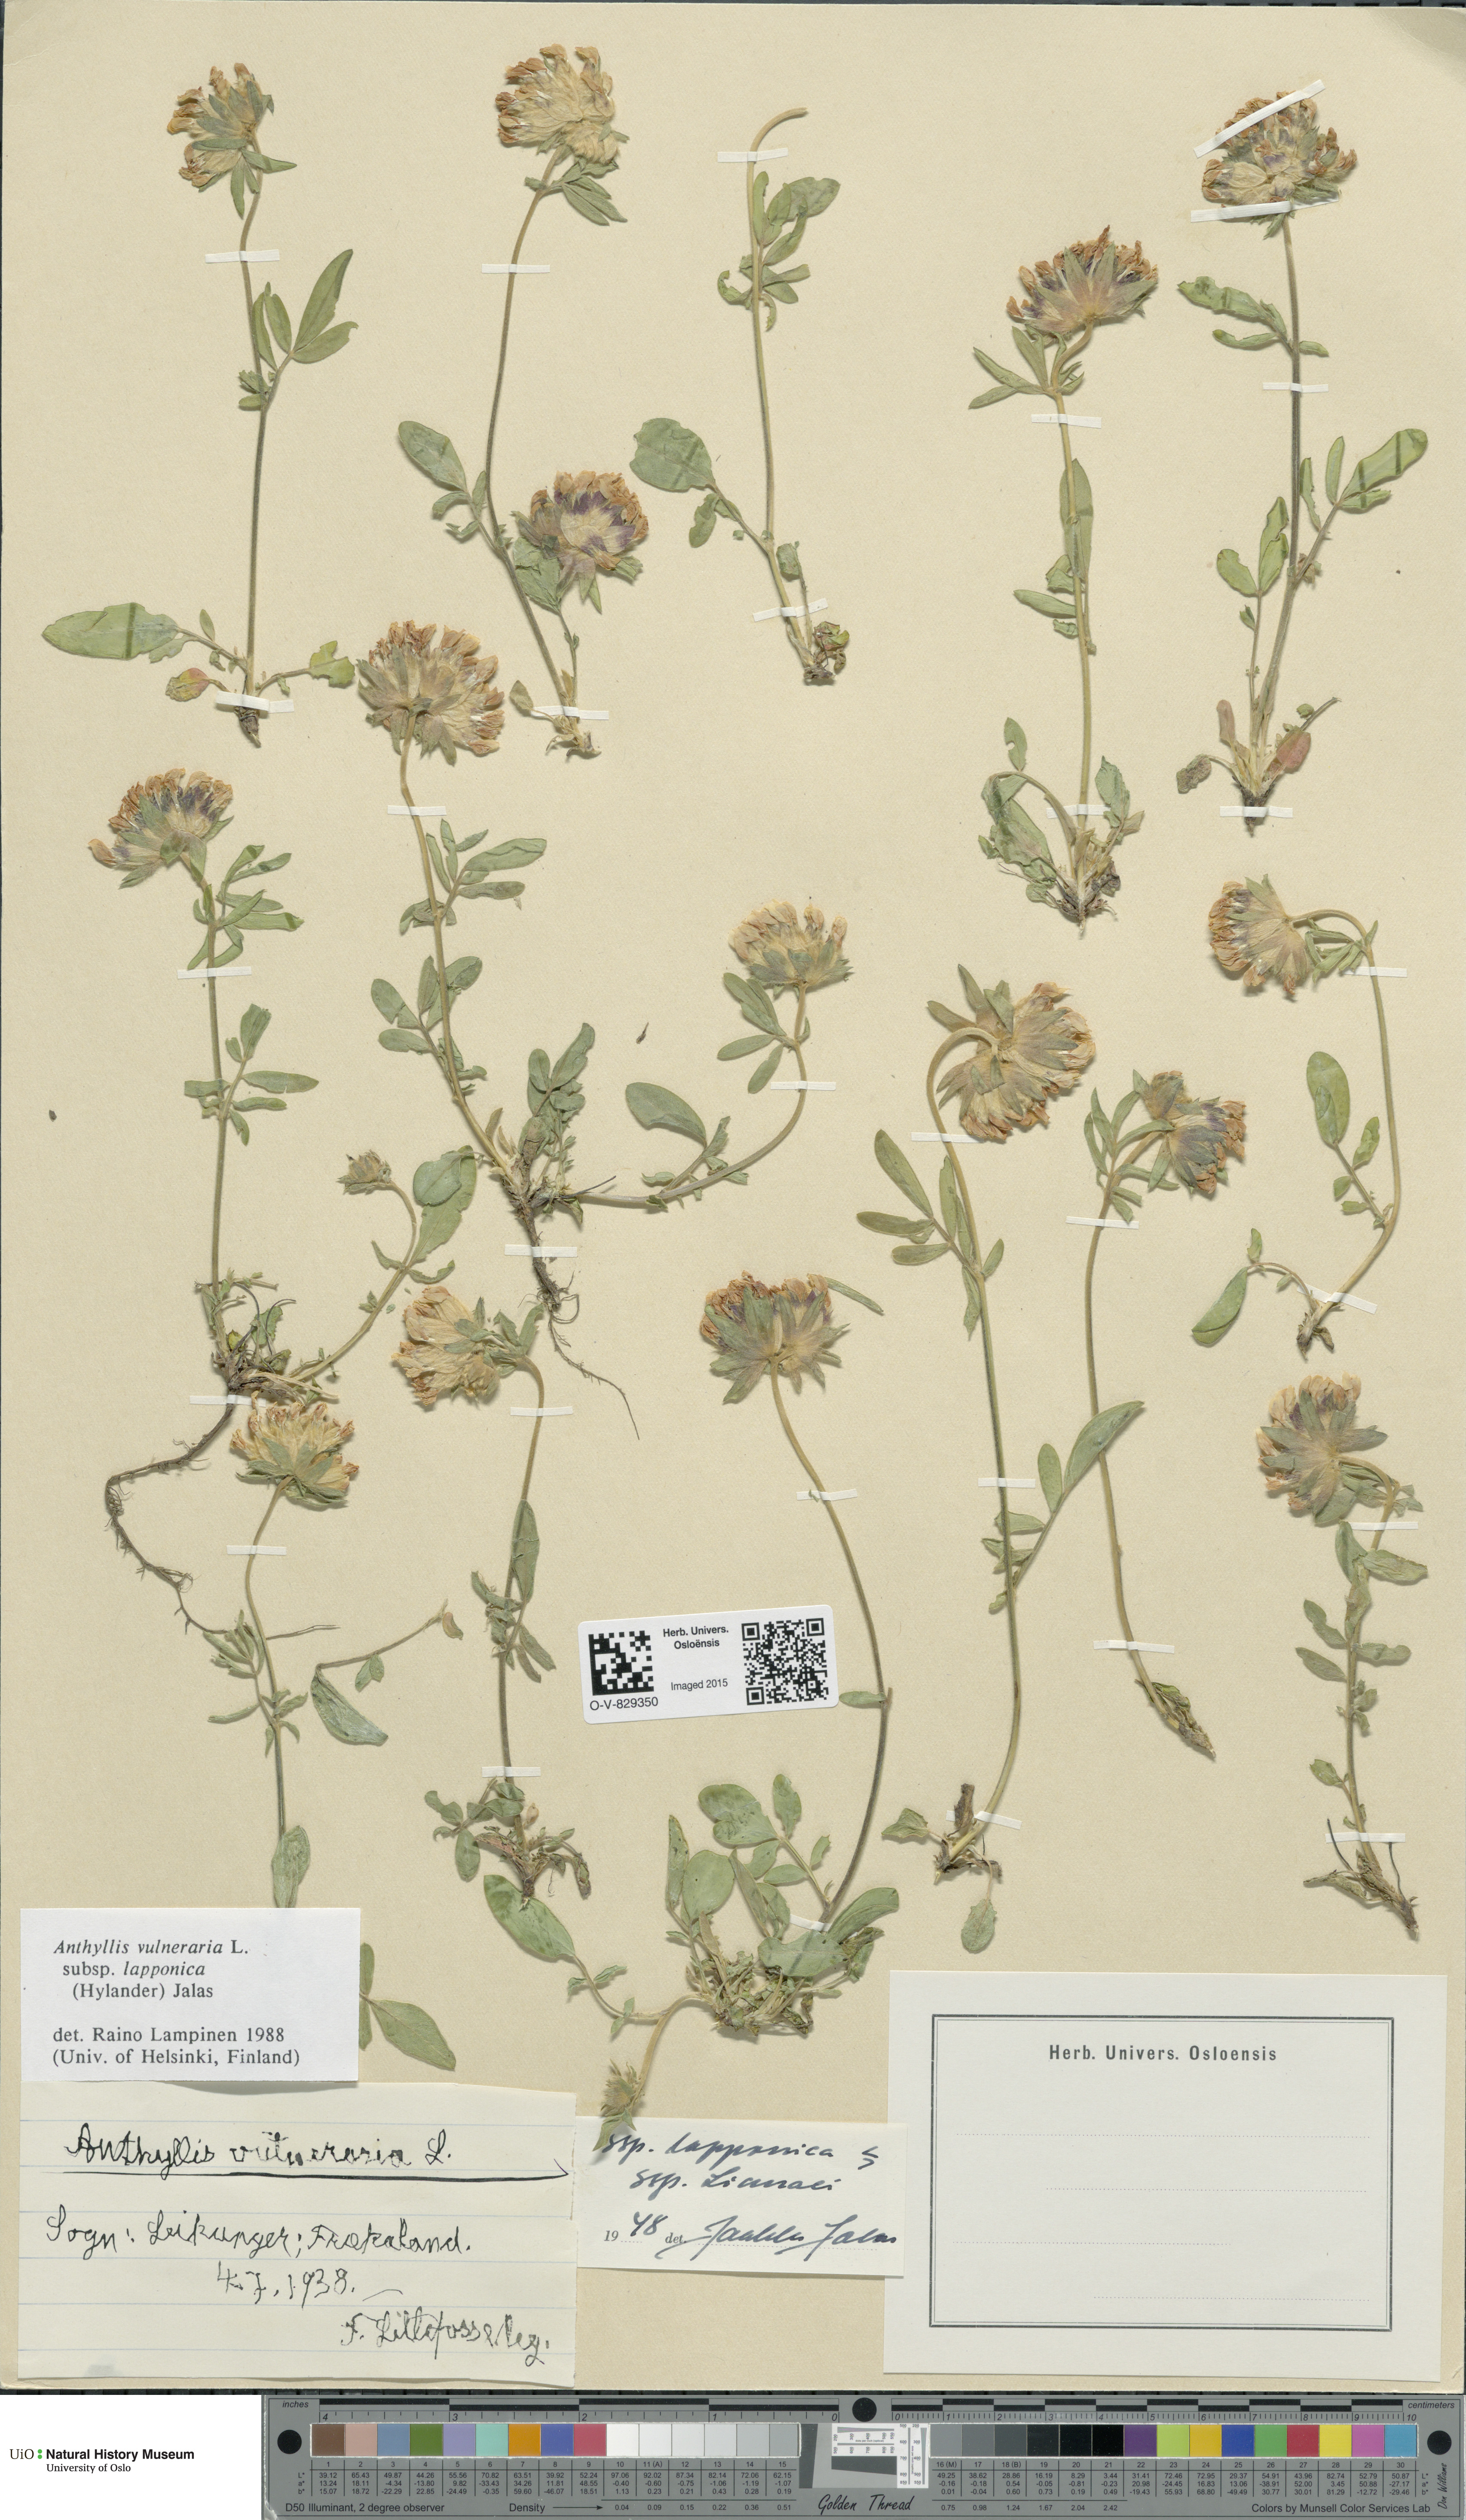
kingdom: Plantae
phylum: Tracheophyta
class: Magnoliopsida
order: Fabales
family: Fabaceae
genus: Anthyllis
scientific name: Anthyllis vulneraria
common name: Kidney vetch
